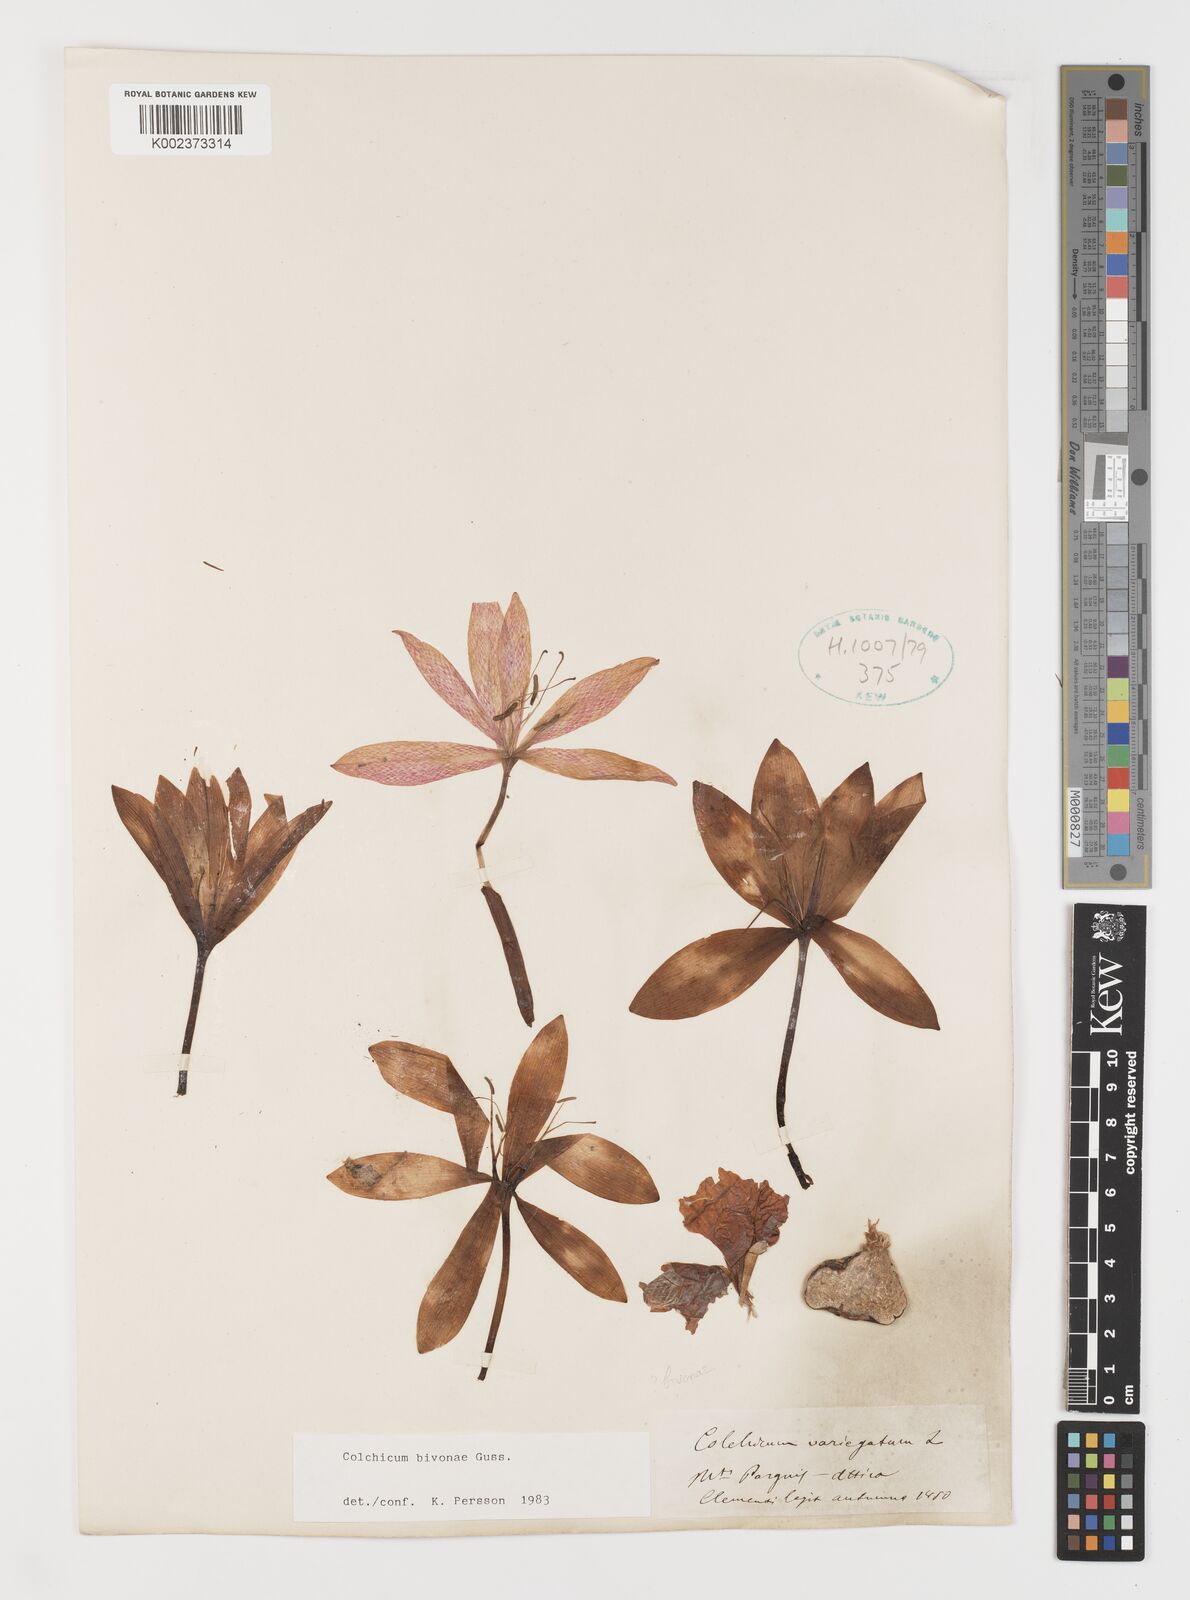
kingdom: Plantae
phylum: Tracheophyta
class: Liliopsida
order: Liliales
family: Colchicaceae
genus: Colchicum
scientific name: Colchicum bivonae
